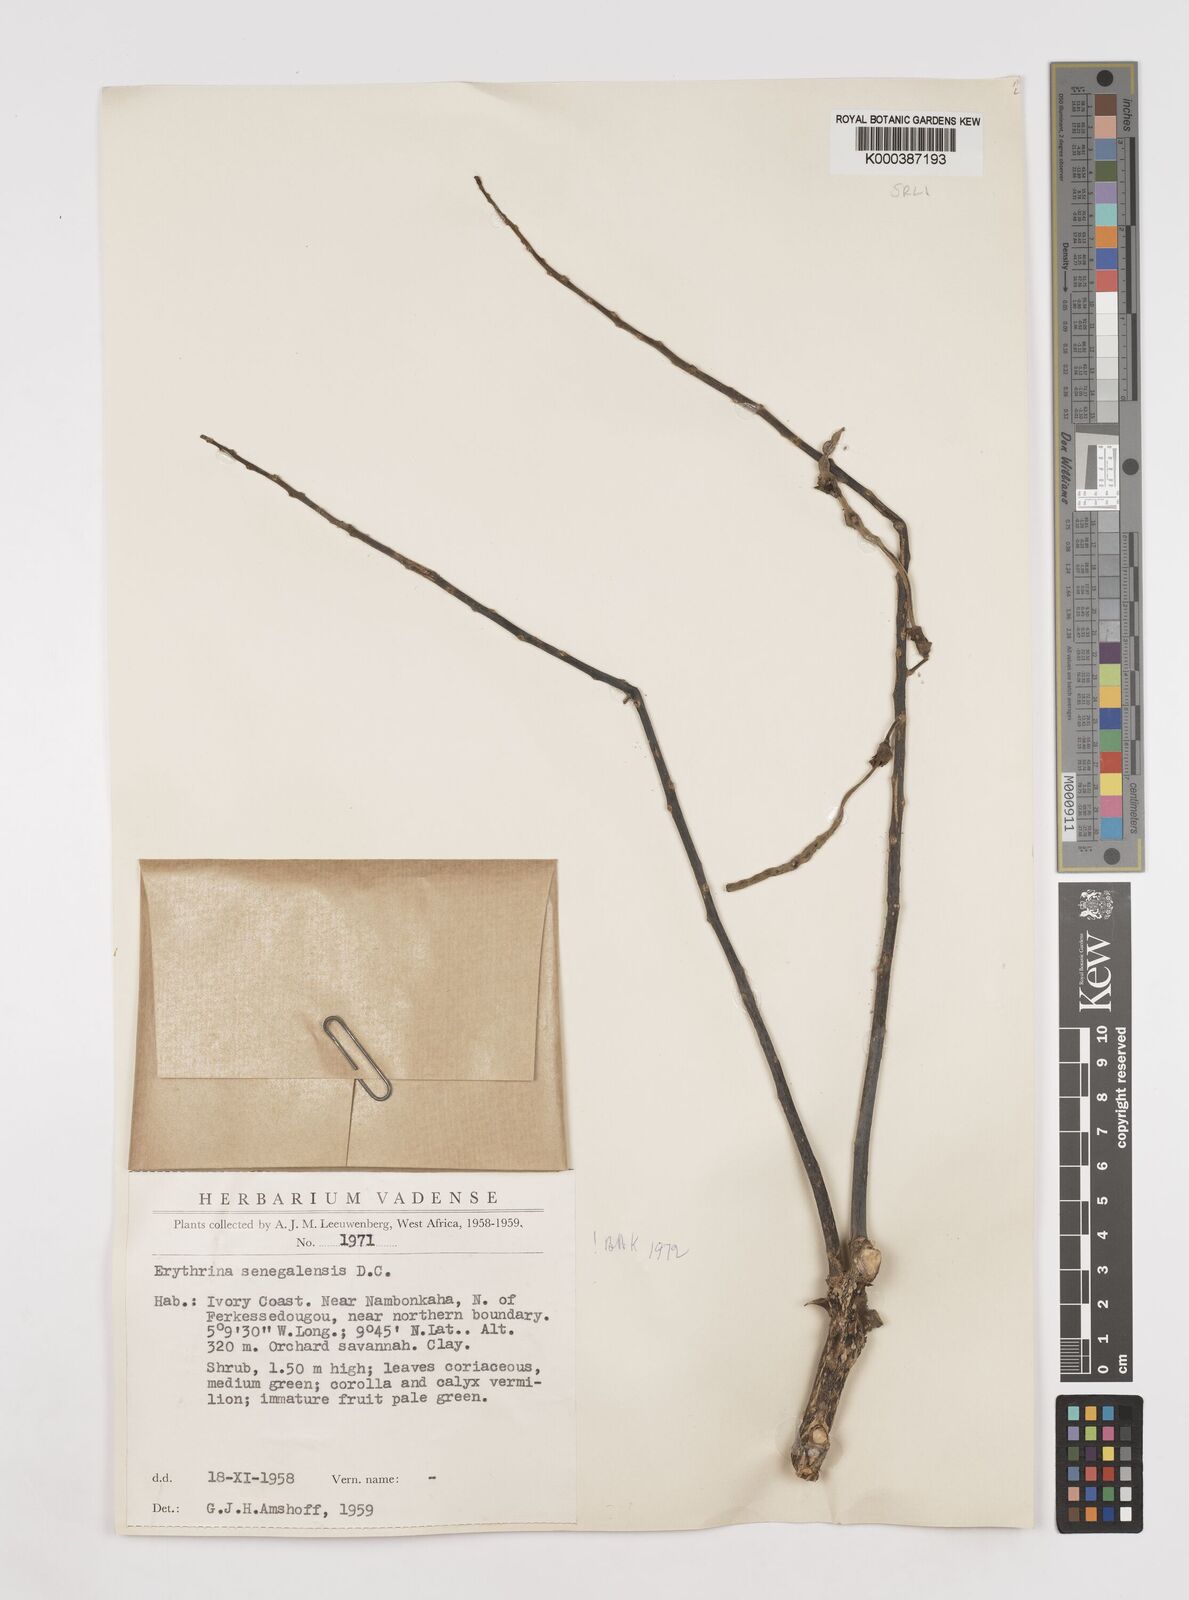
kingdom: Plantae
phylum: Tracheophyta
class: Magnoliopsida
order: Fabales
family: Fabaceae
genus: Erythrina
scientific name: Erythrina senegalensis
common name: Senegal coraltree
